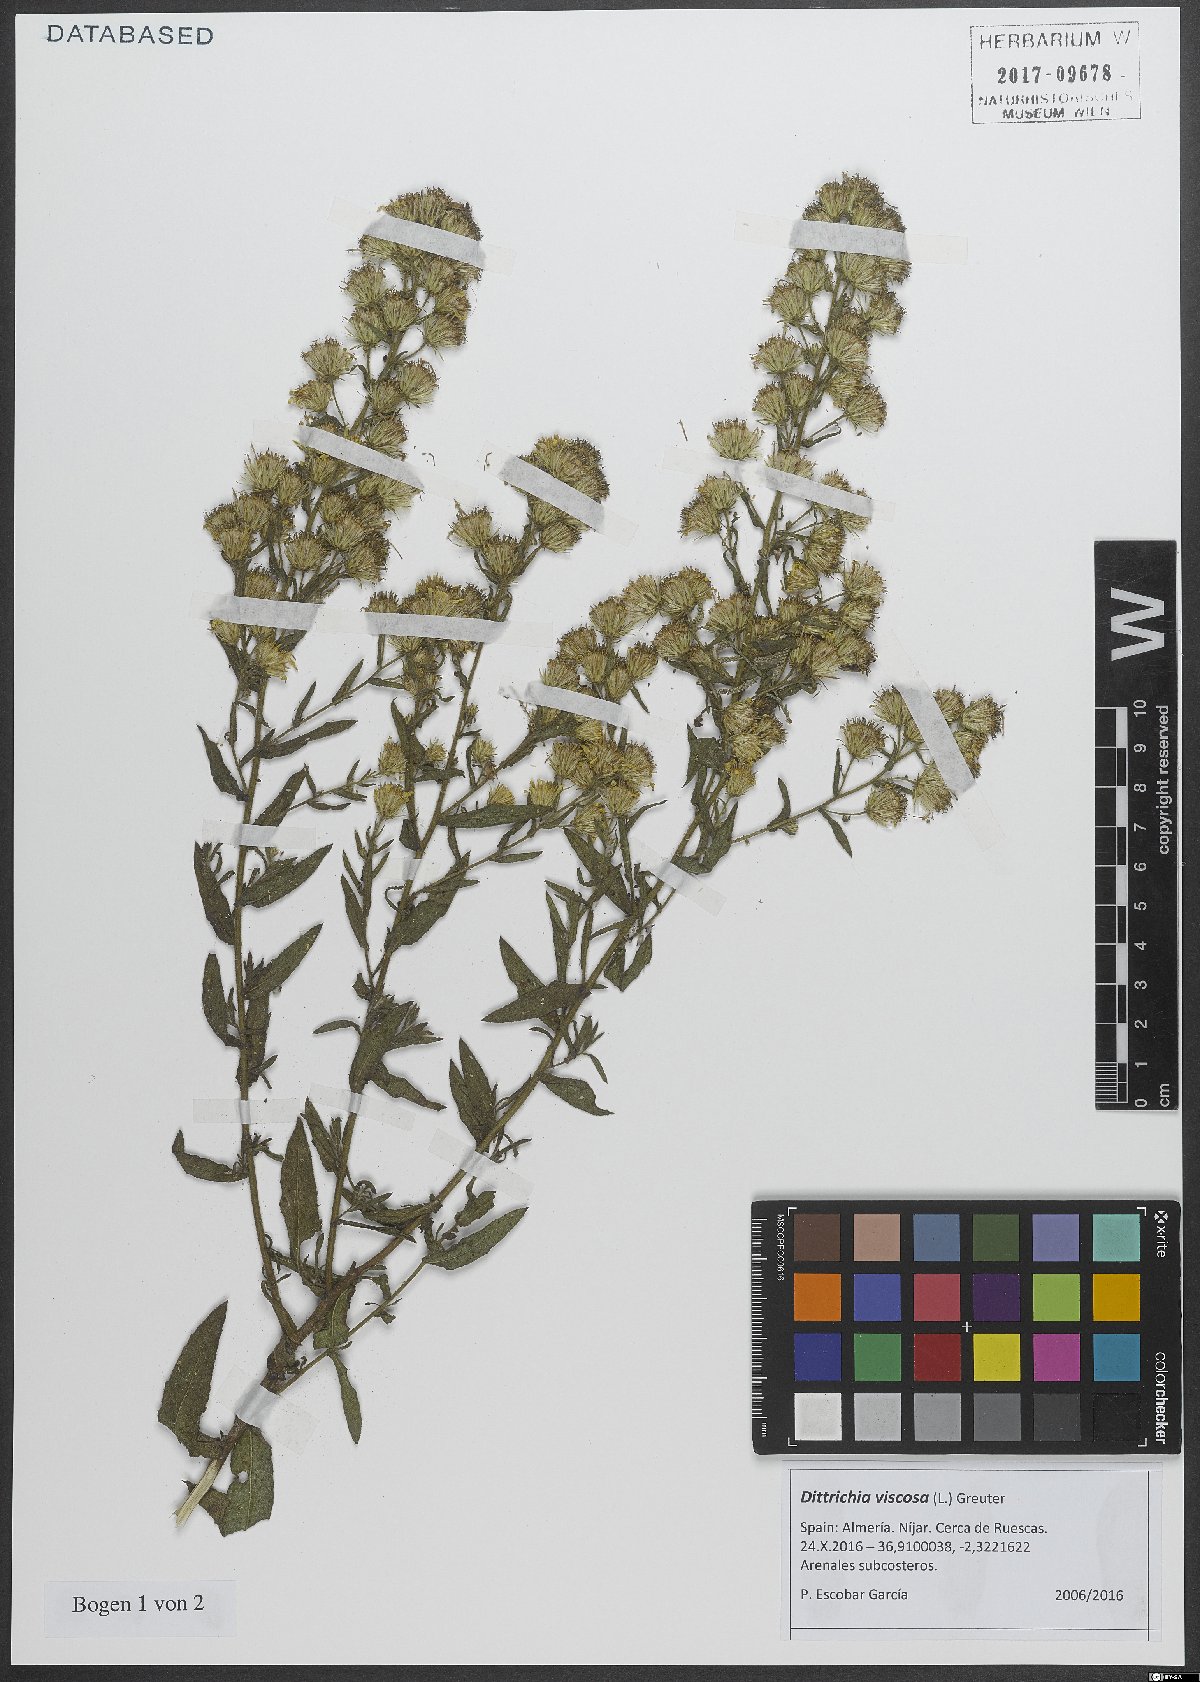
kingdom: Plantae
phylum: Tracheophyta
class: Magnoliopsida
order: Asterales
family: Asteraceae
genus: Dittrichia
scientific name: Dittrichia viscosa
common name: Woody fleabane
